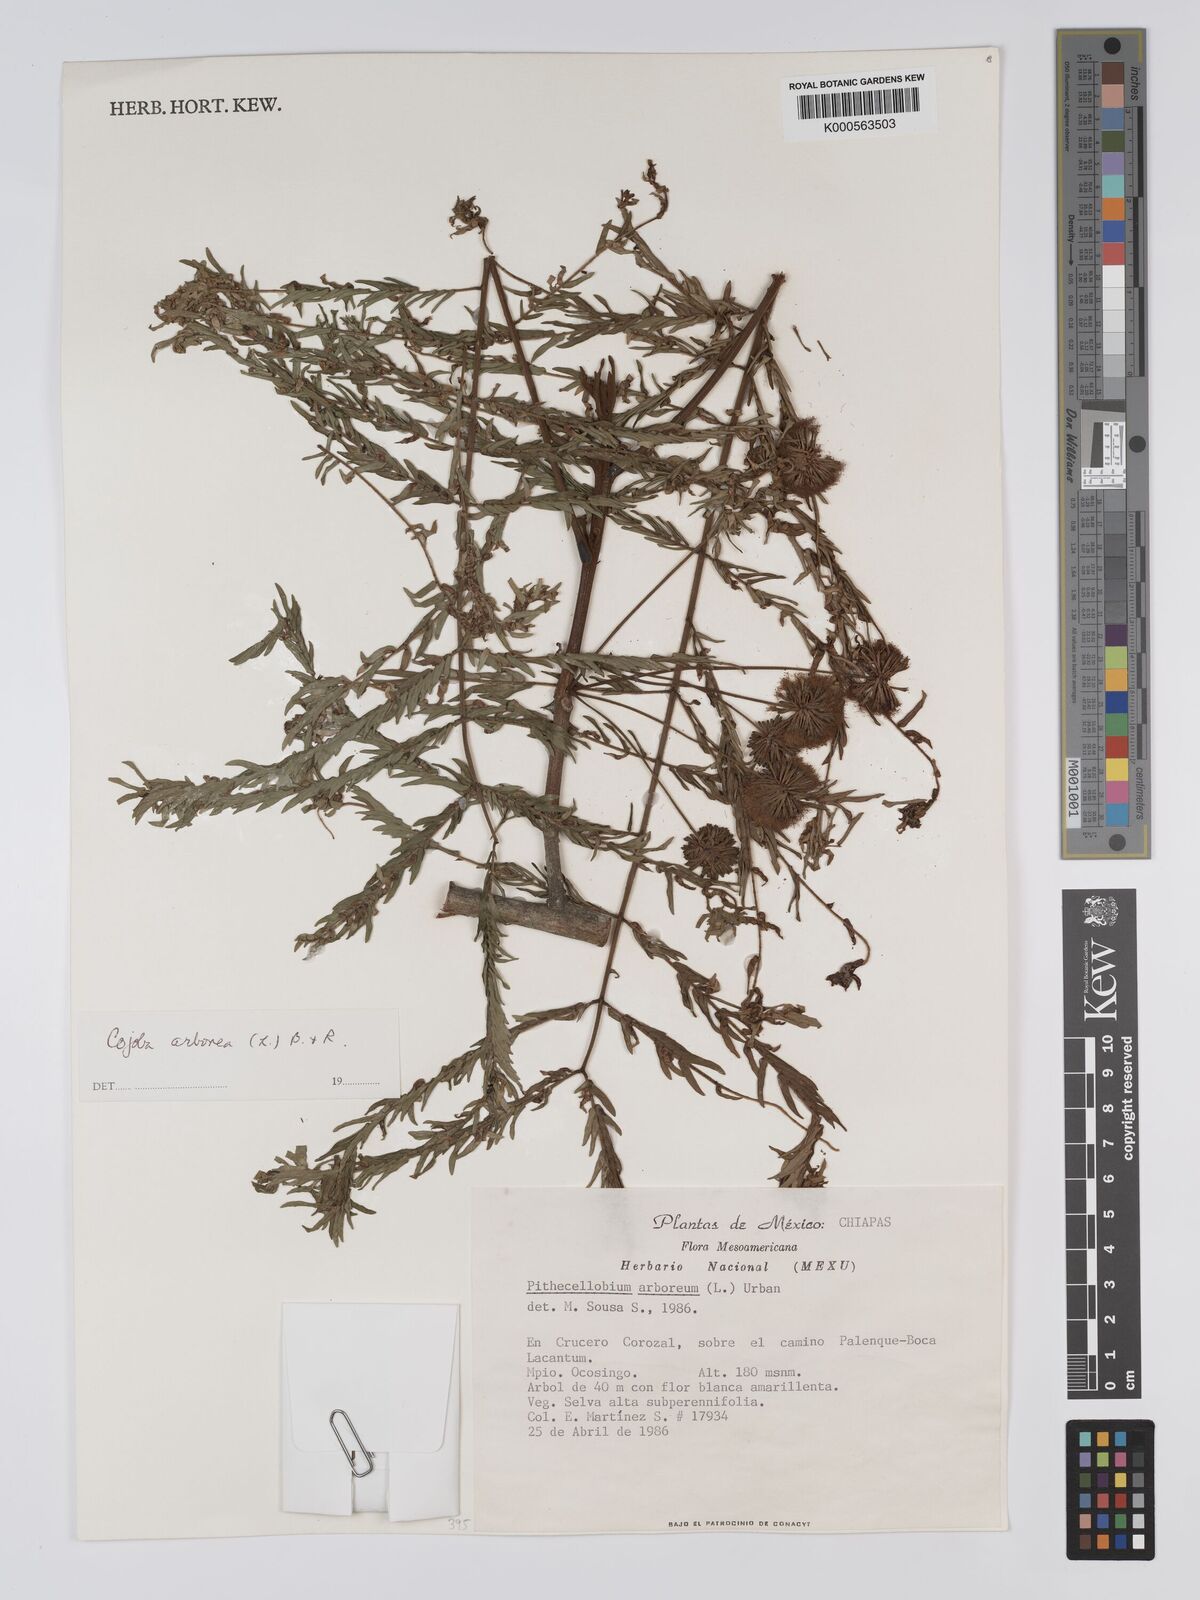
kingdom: Plantae
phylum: Tracheophyta
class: Magnoliopsida
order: Fabales
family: Fabaceae
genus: Cojoba
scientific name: Cojoba arborea
